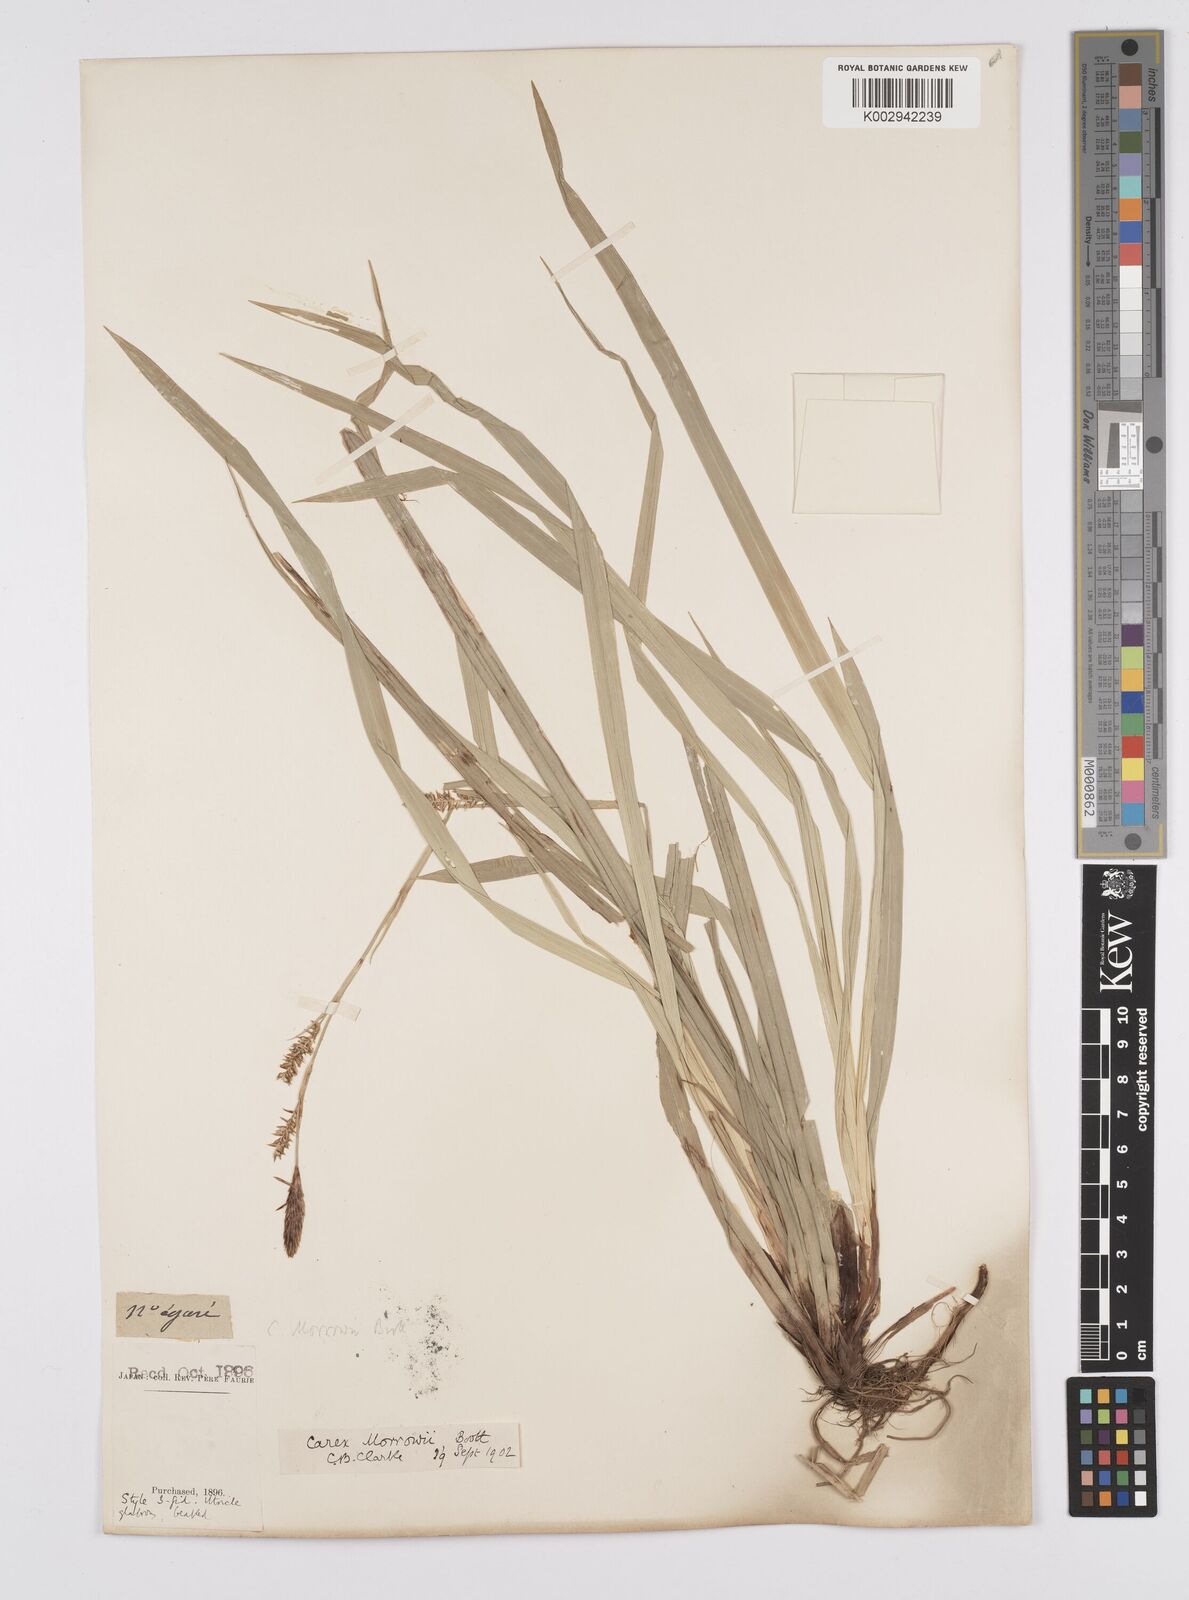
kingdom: Plantae
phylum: Tracheophyta
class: Liliopsida
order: Poales
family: Cyperaceae
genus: Carex
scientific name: Carex morrowii
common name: Japanese sedge
